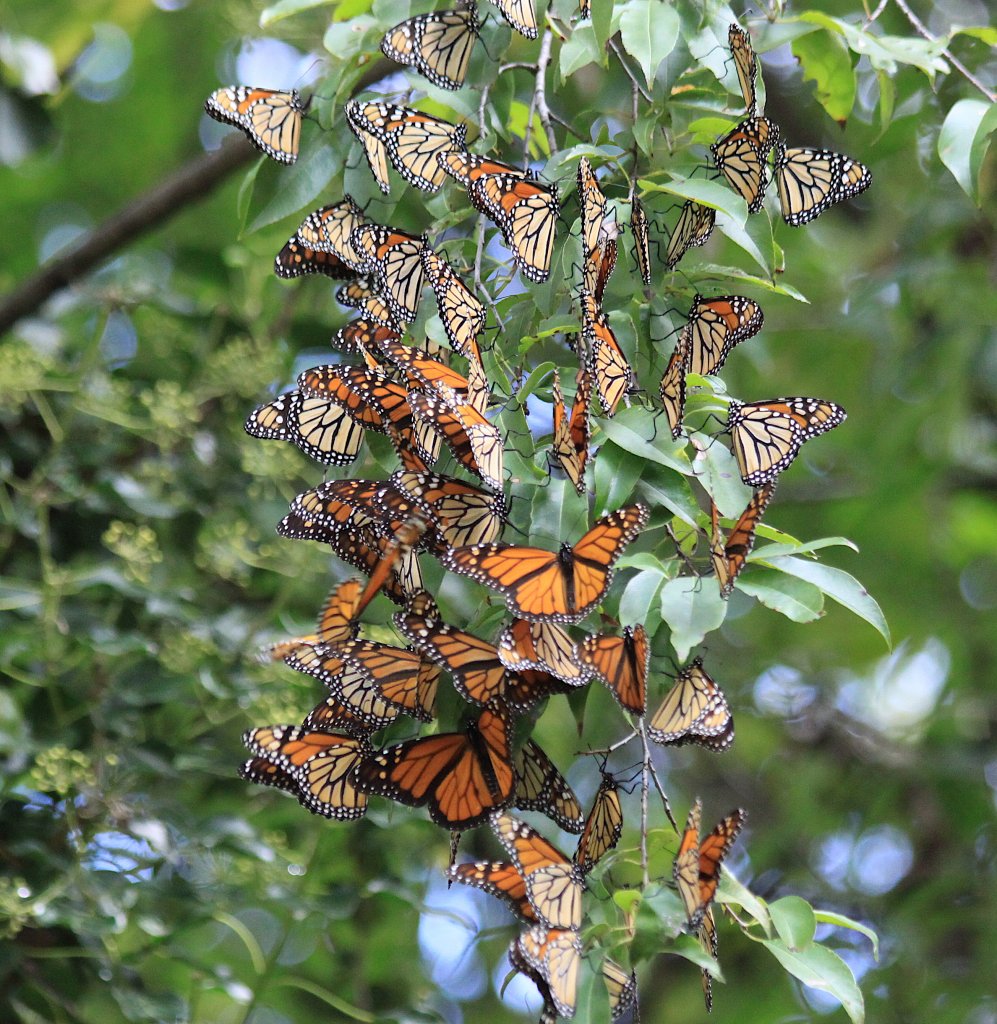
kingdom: Animalia
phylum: Arthropoda
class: Insecta
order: Lepidoptera
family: Nymphalidae
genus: Danaus
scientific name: Danaus plexippus
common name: Monarch
